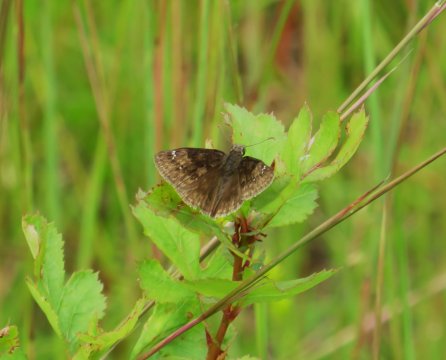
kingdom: Animalia
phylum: Arthropoda
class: Insecta
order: Lepidoptera
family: Hesperiidae
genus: Gesta
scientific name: Gesta
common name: Wild Indigo Duskywing
